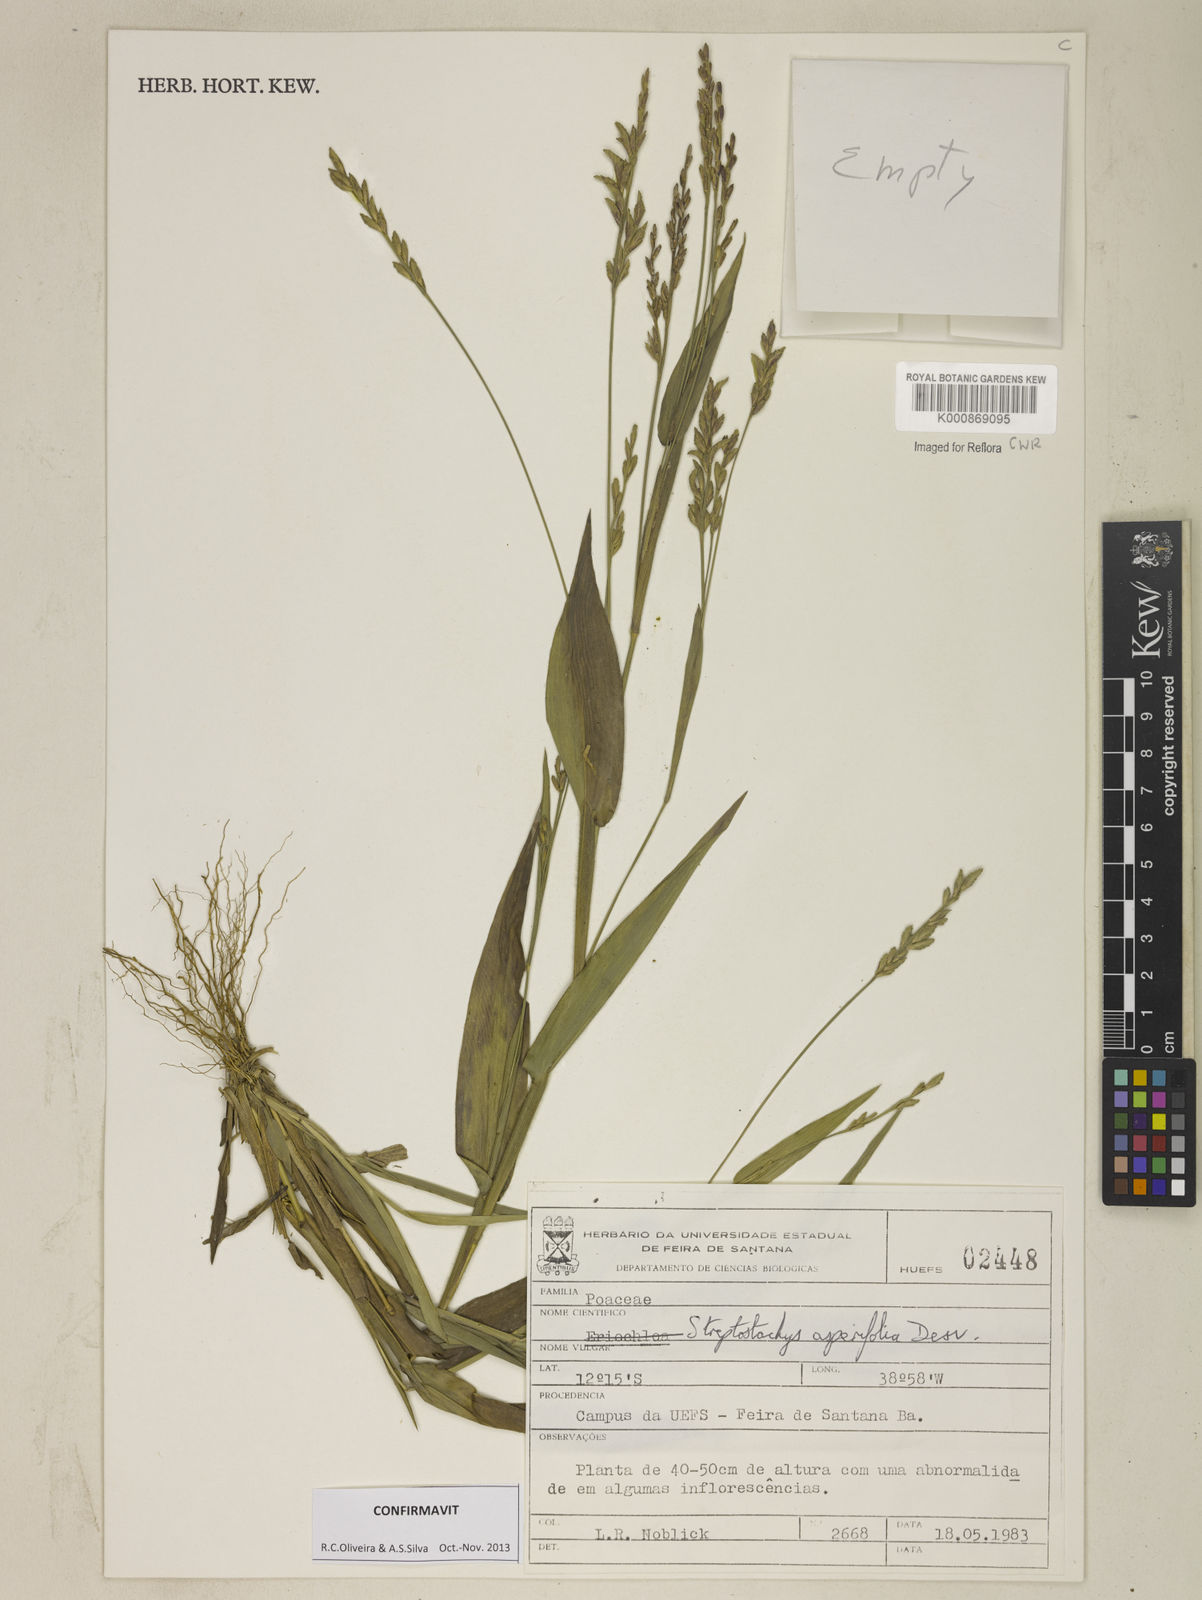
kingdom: Plantae
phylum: Tracheophyta
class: Liliopsida
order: Poales
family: Poaceae
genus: Streptostachys
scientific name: Streptostachys asperifolia
